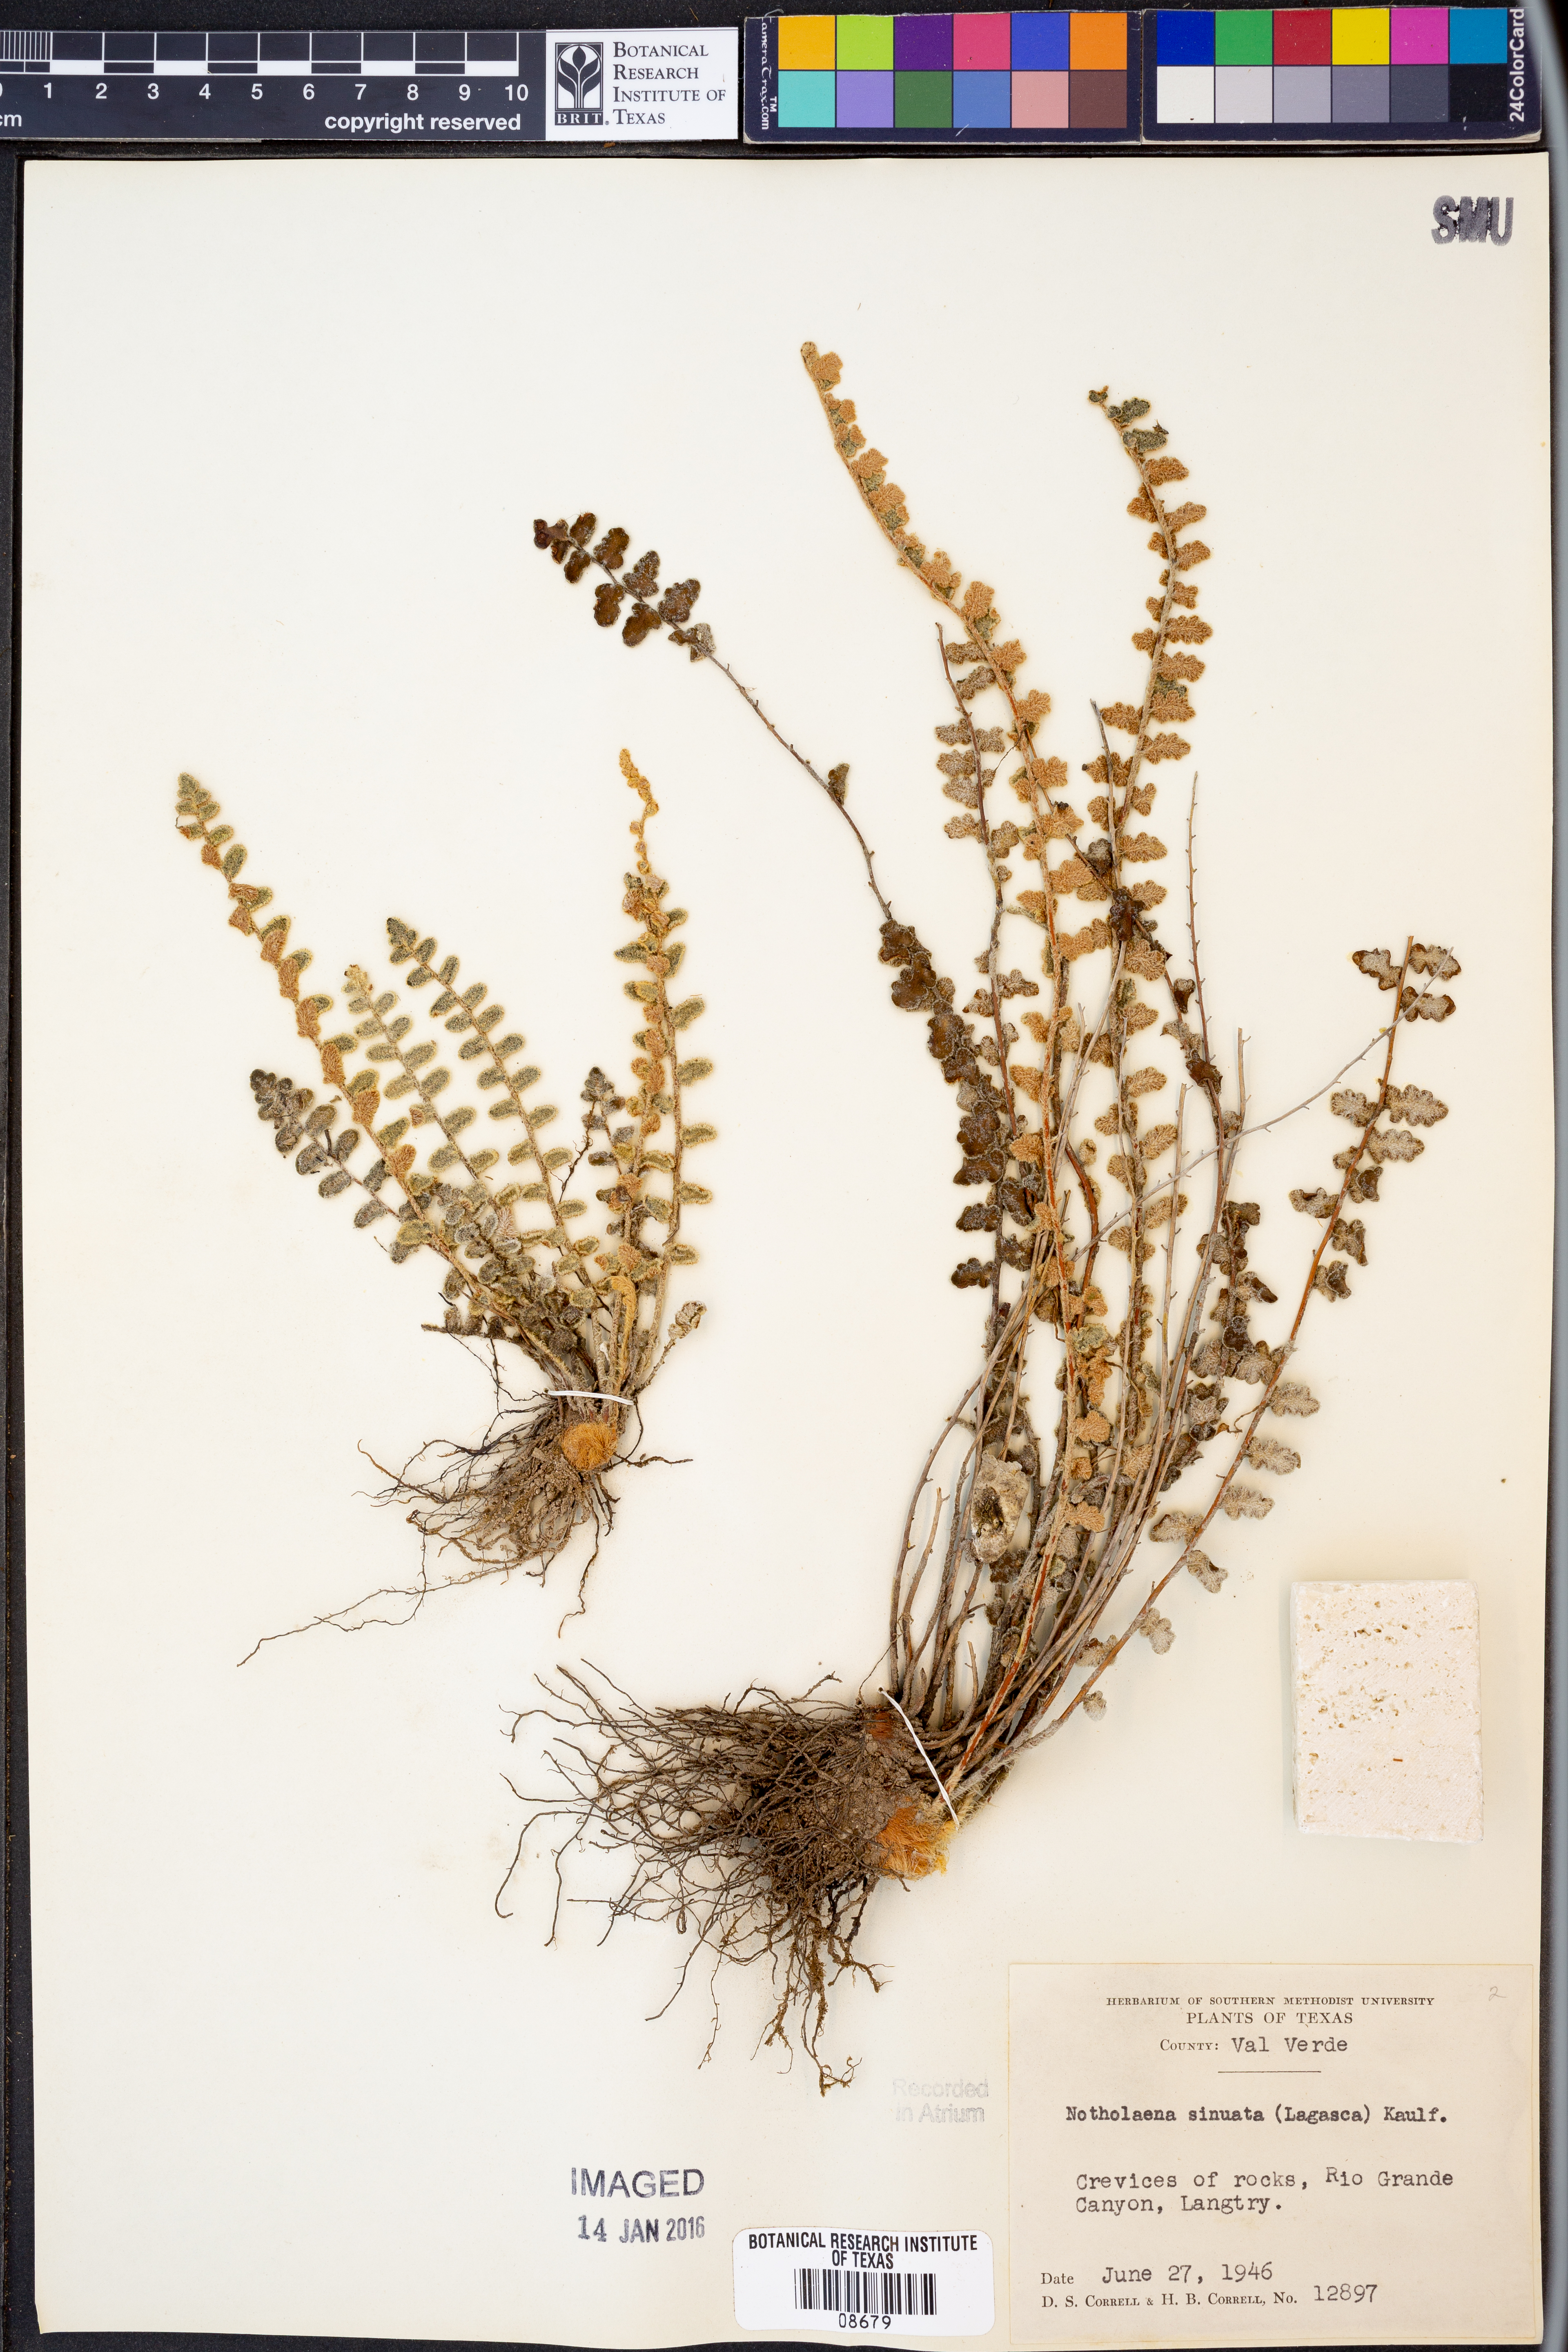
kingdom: Plantae
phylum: Tracheophyta
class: Polypodiopsida
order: Polypodiales
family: Pteridaceae
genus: Astrolepis
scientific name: Astrolepis sinuata
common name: Wavy scaly cloakfern
